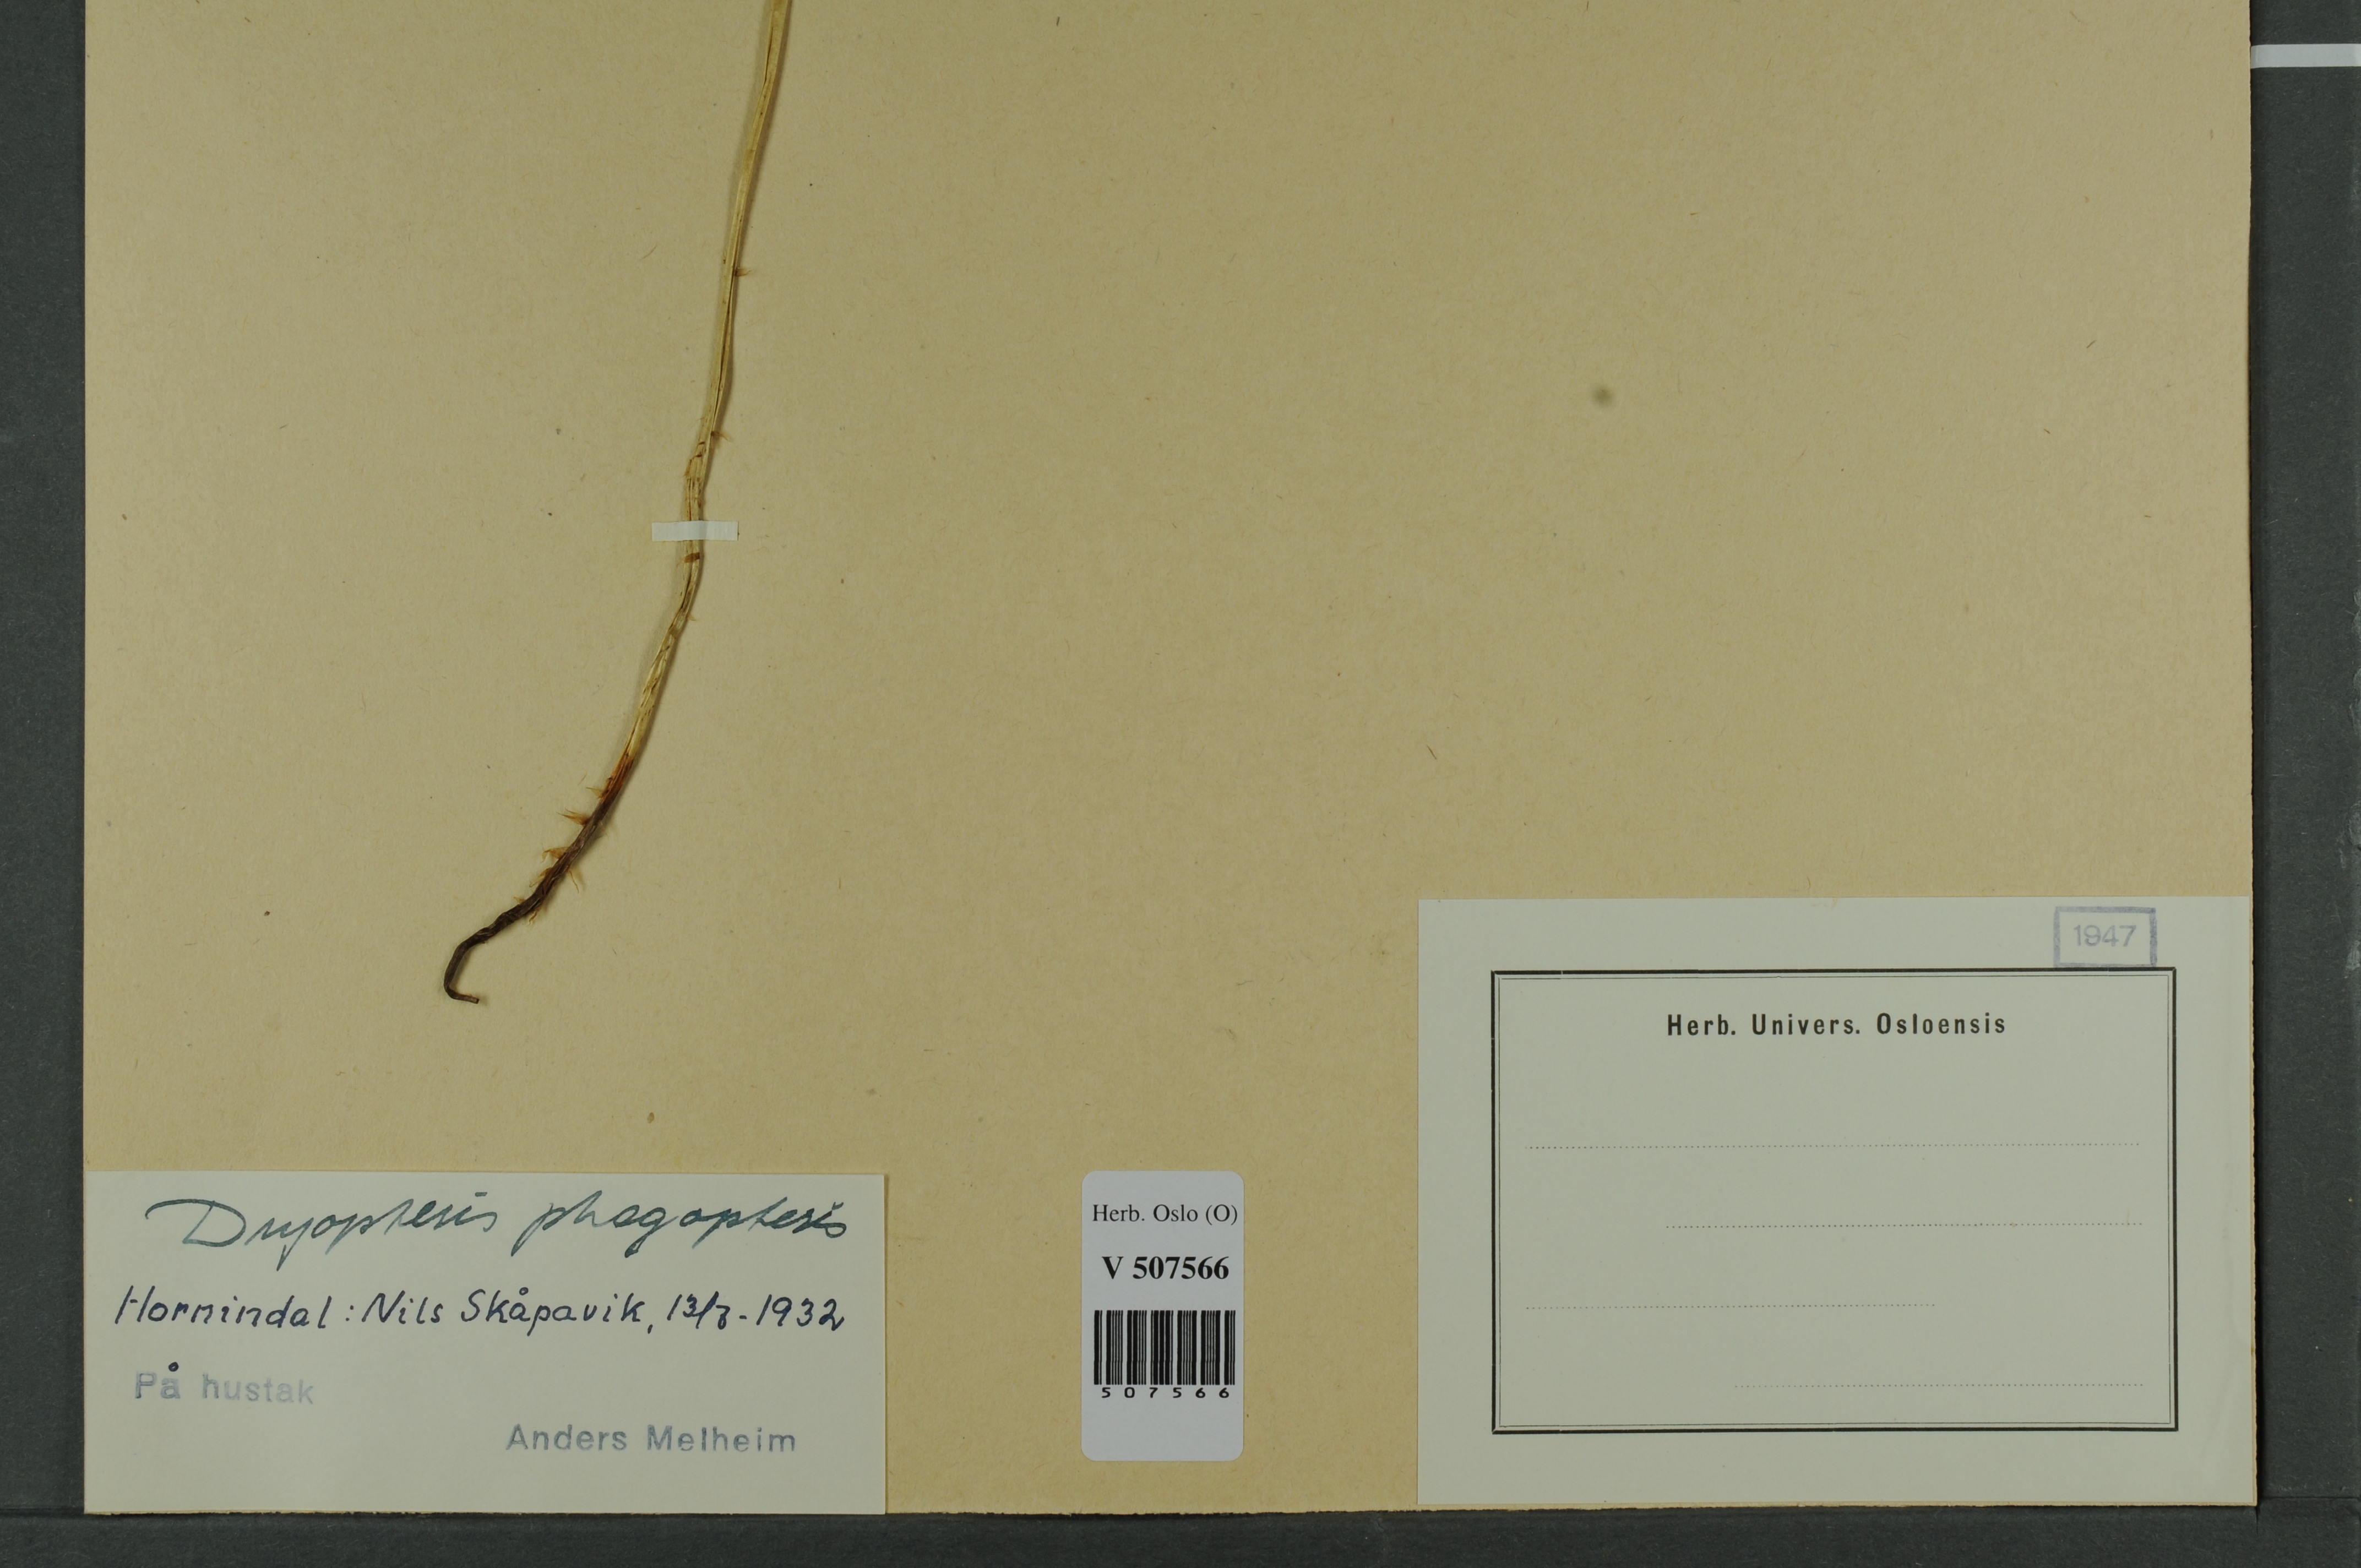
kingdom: Plantae
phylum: Tracheophyta
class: Polypodiopsida
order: Polypodiales
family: Thelypteridaceae
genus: Phegopteris
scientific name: Phegopteris connectilis
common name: Beech fern
